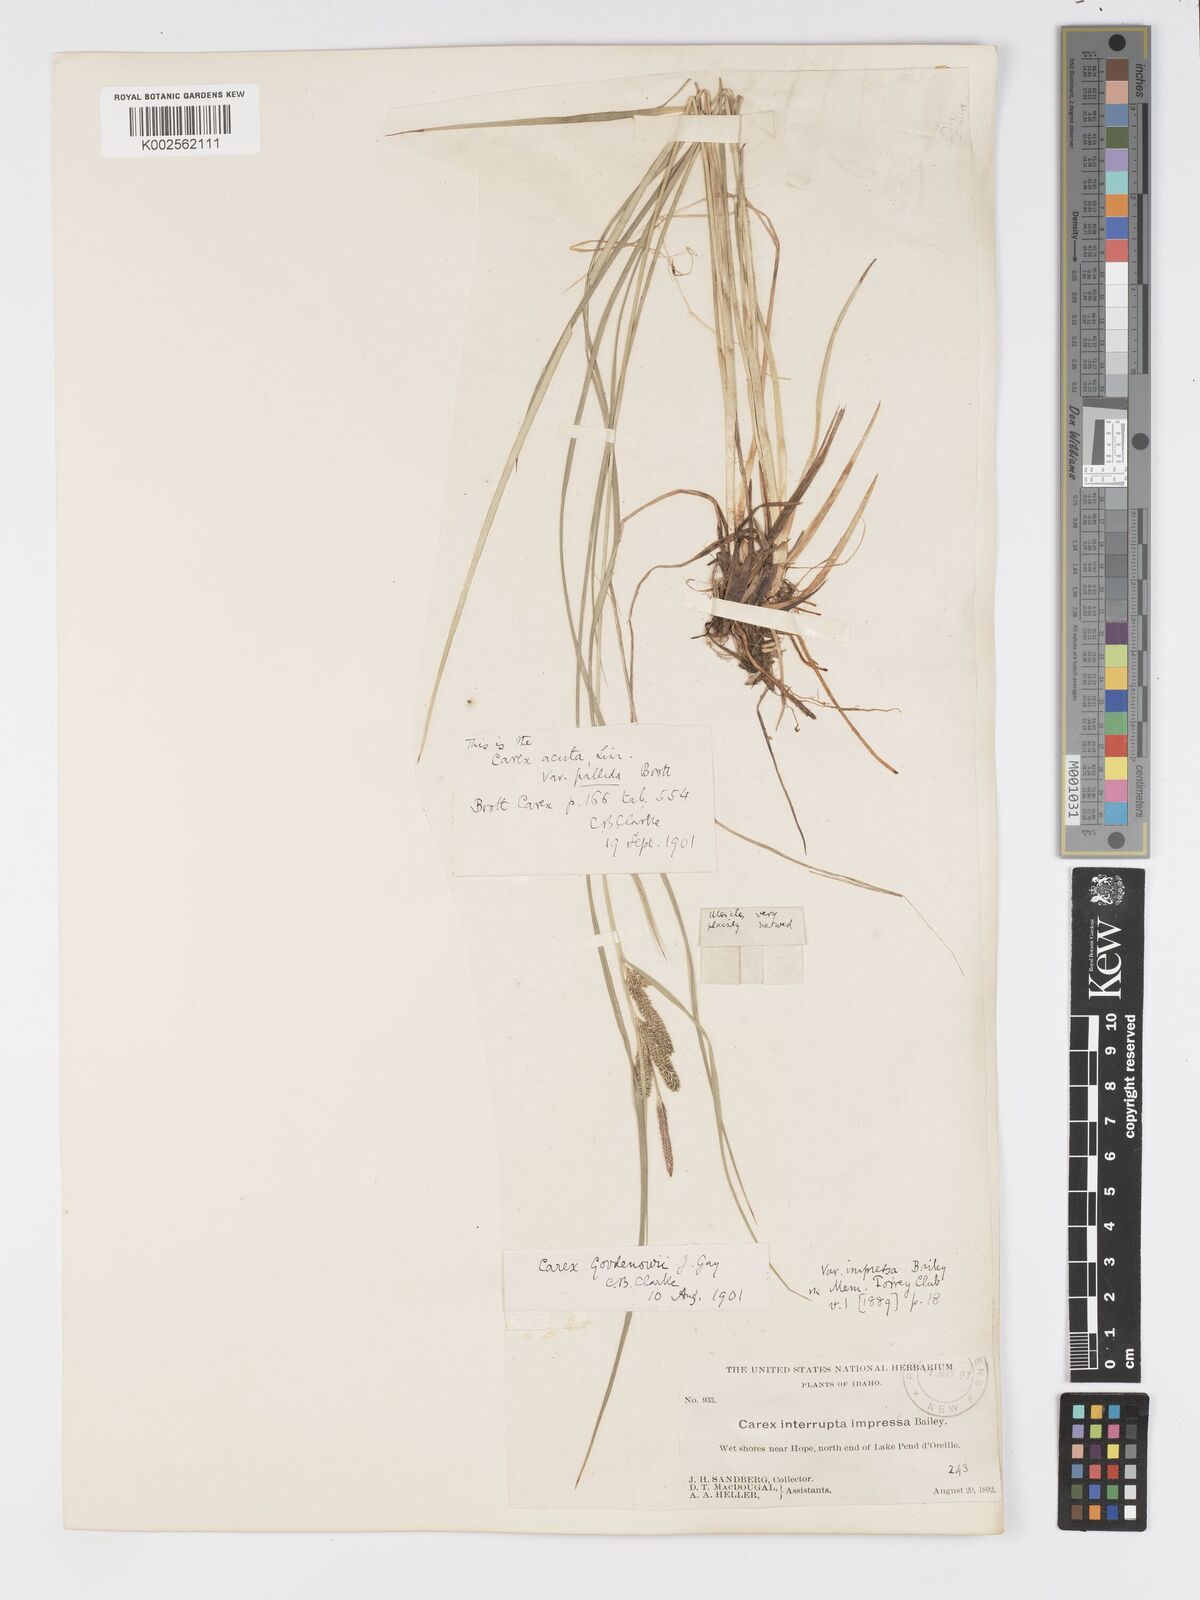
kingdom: Plantae
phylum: Tracheophyta
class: Liliopsida
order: Poales
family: Cyperaceae
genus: Carex
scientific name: Carex kelloggii
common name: Kellogg's sedge
